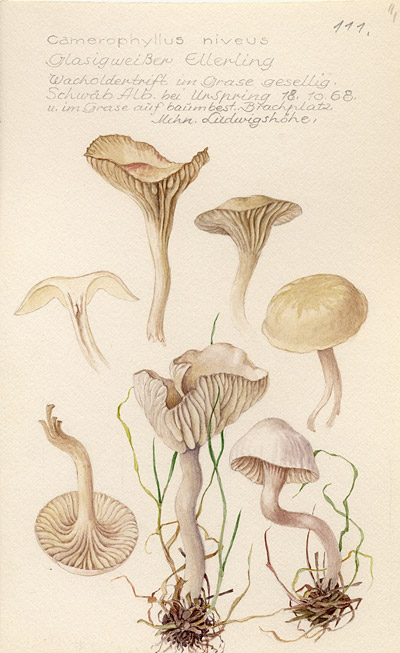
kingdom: Fungi
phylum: Basidiomycota
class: Agaricomycetes
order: Agaricales
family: Hygrophoraceae
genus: Cuphophyllus
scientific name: Cuphophyllus virgineus
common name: Snowy waxcap
